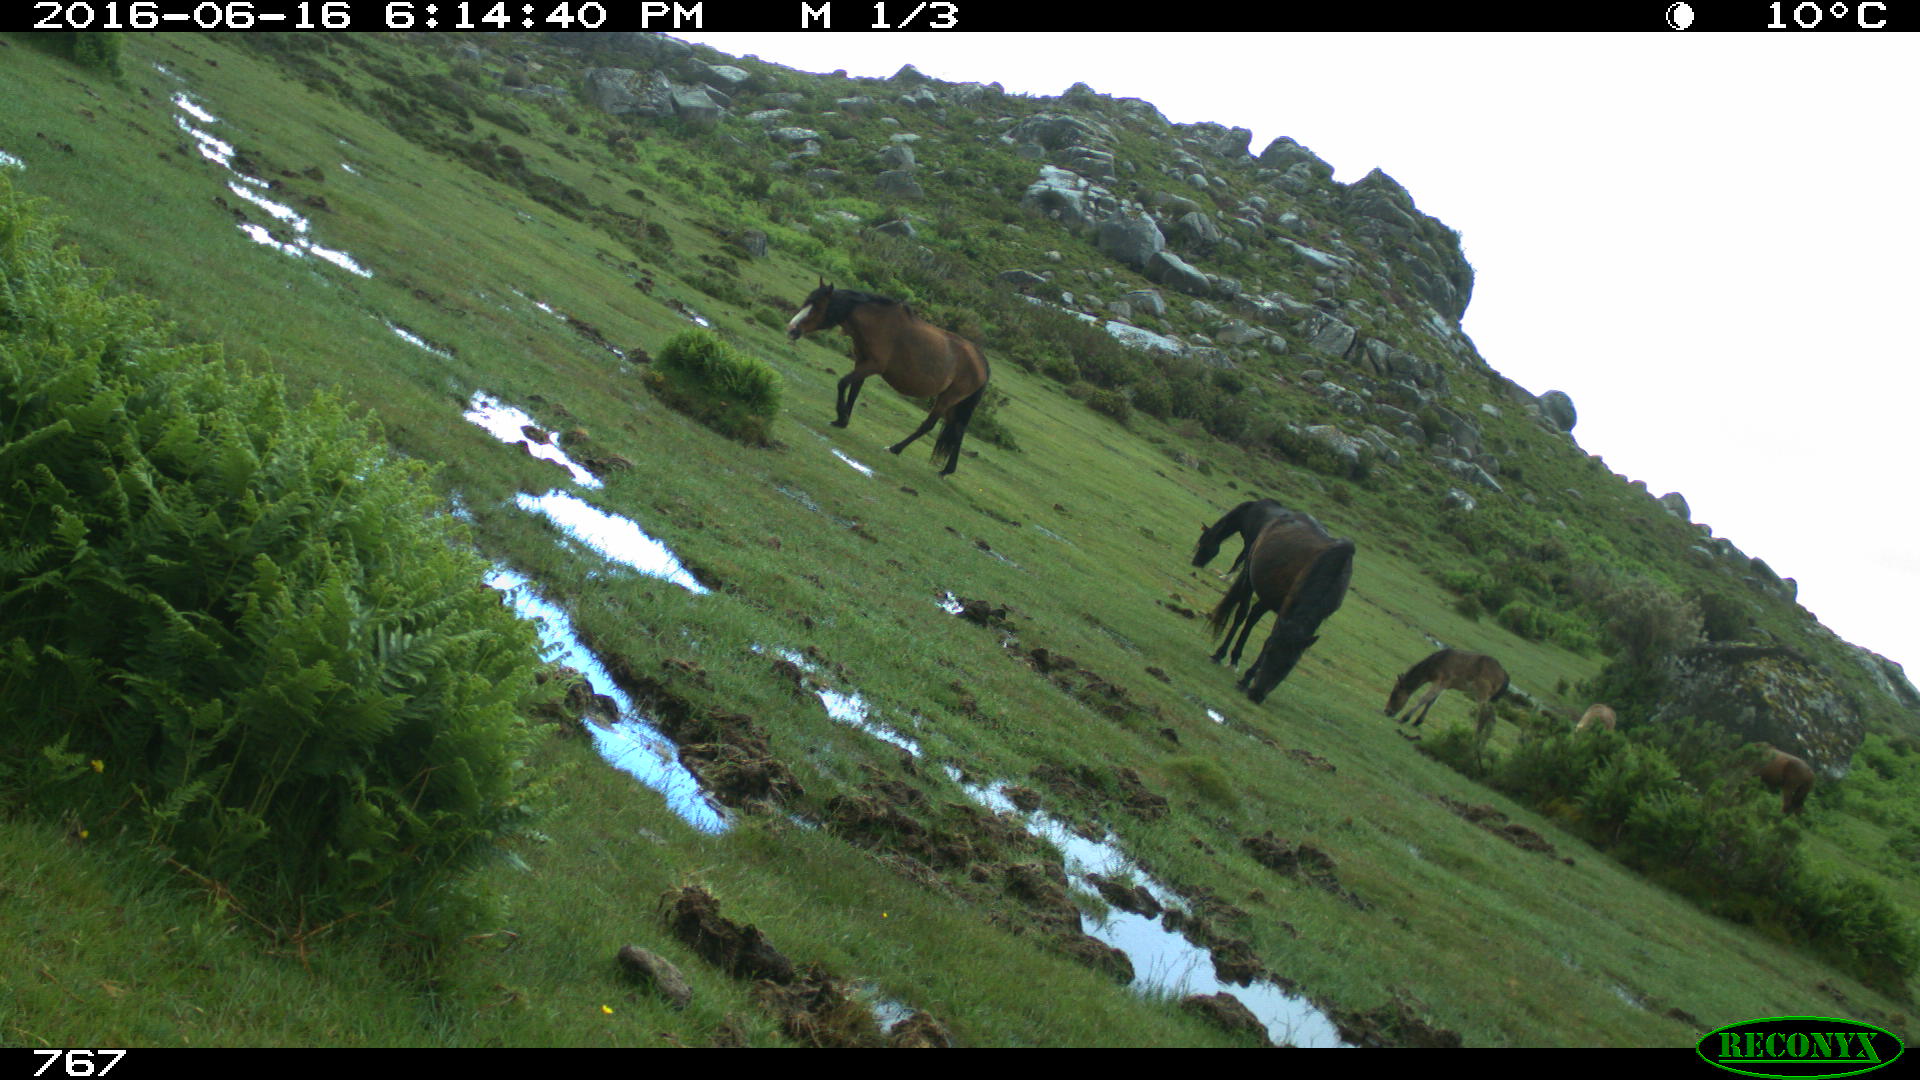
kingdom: Animalia
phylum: Chordata
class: Mammalia
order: Perissodactyla
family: Equidae
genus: Equus
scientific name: Equus caballus
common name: Horse
